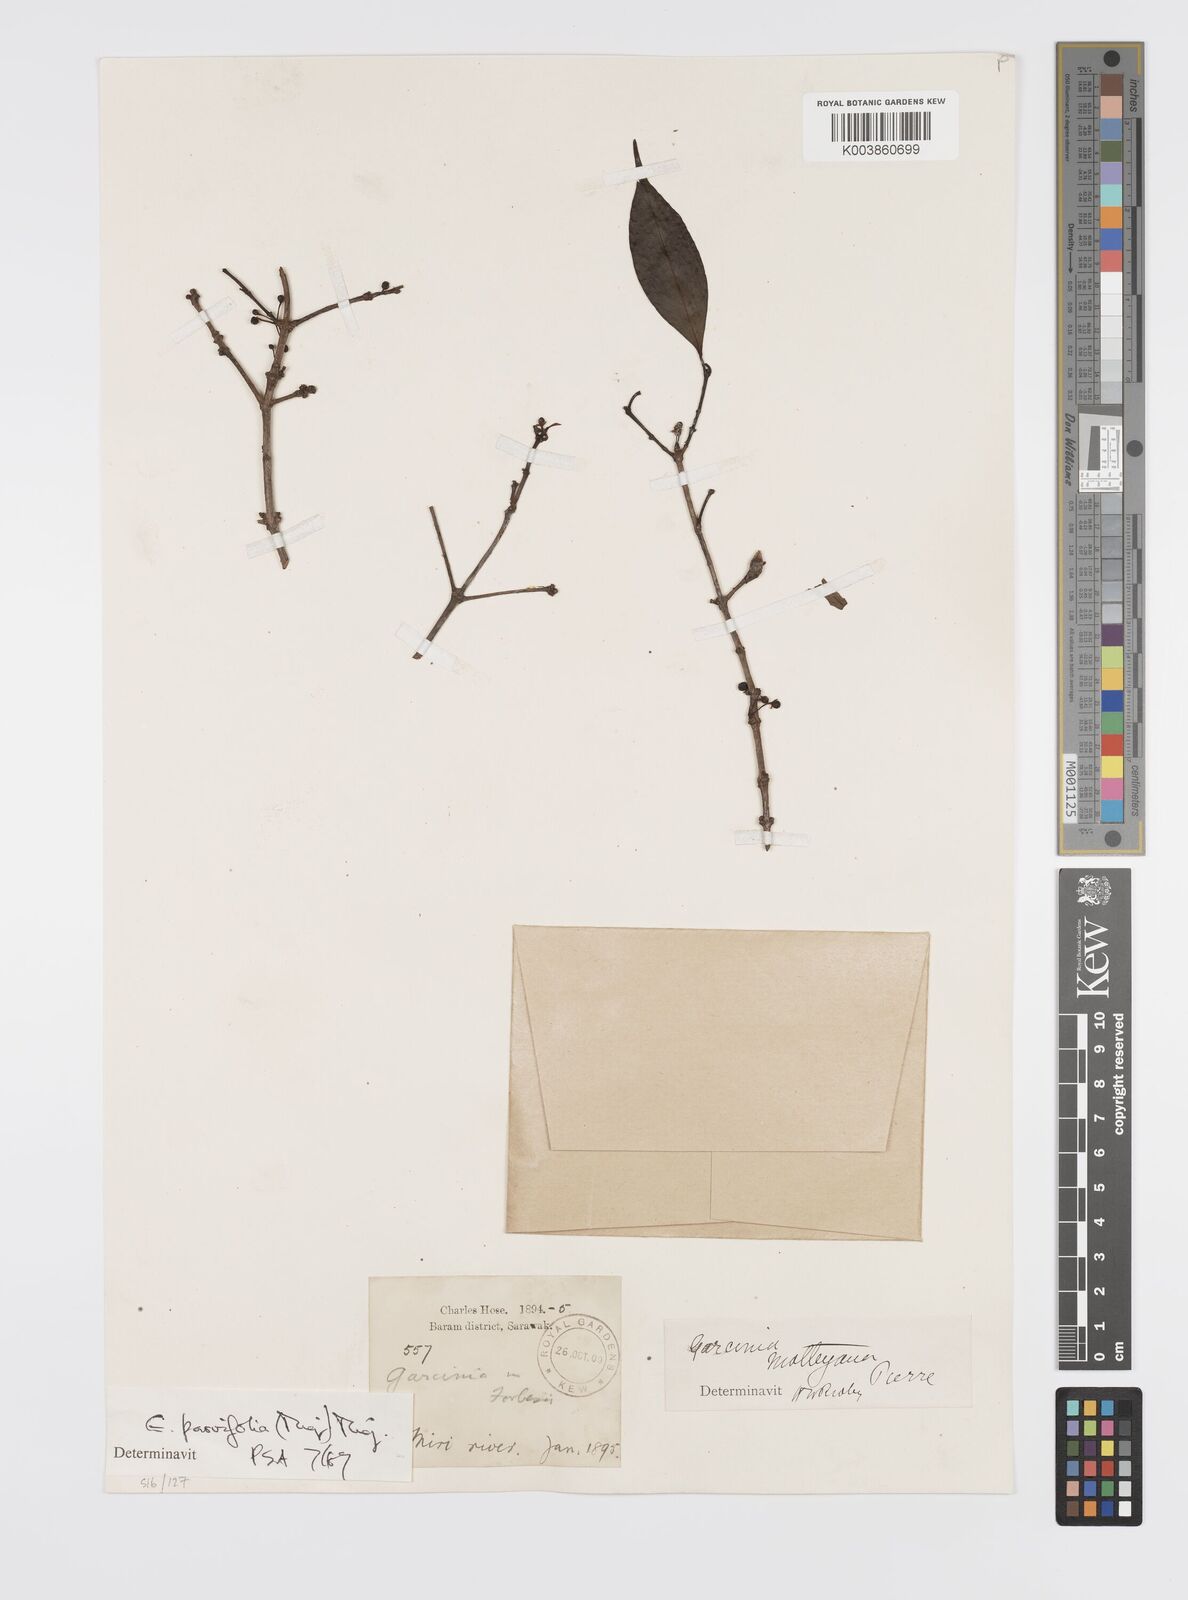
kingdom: Plantae
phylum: Tracheophyta
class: Magnoliopsida
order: Malpighiales
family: Clusiaceae
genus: Garcinia
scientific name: Garcinia parvifolia
